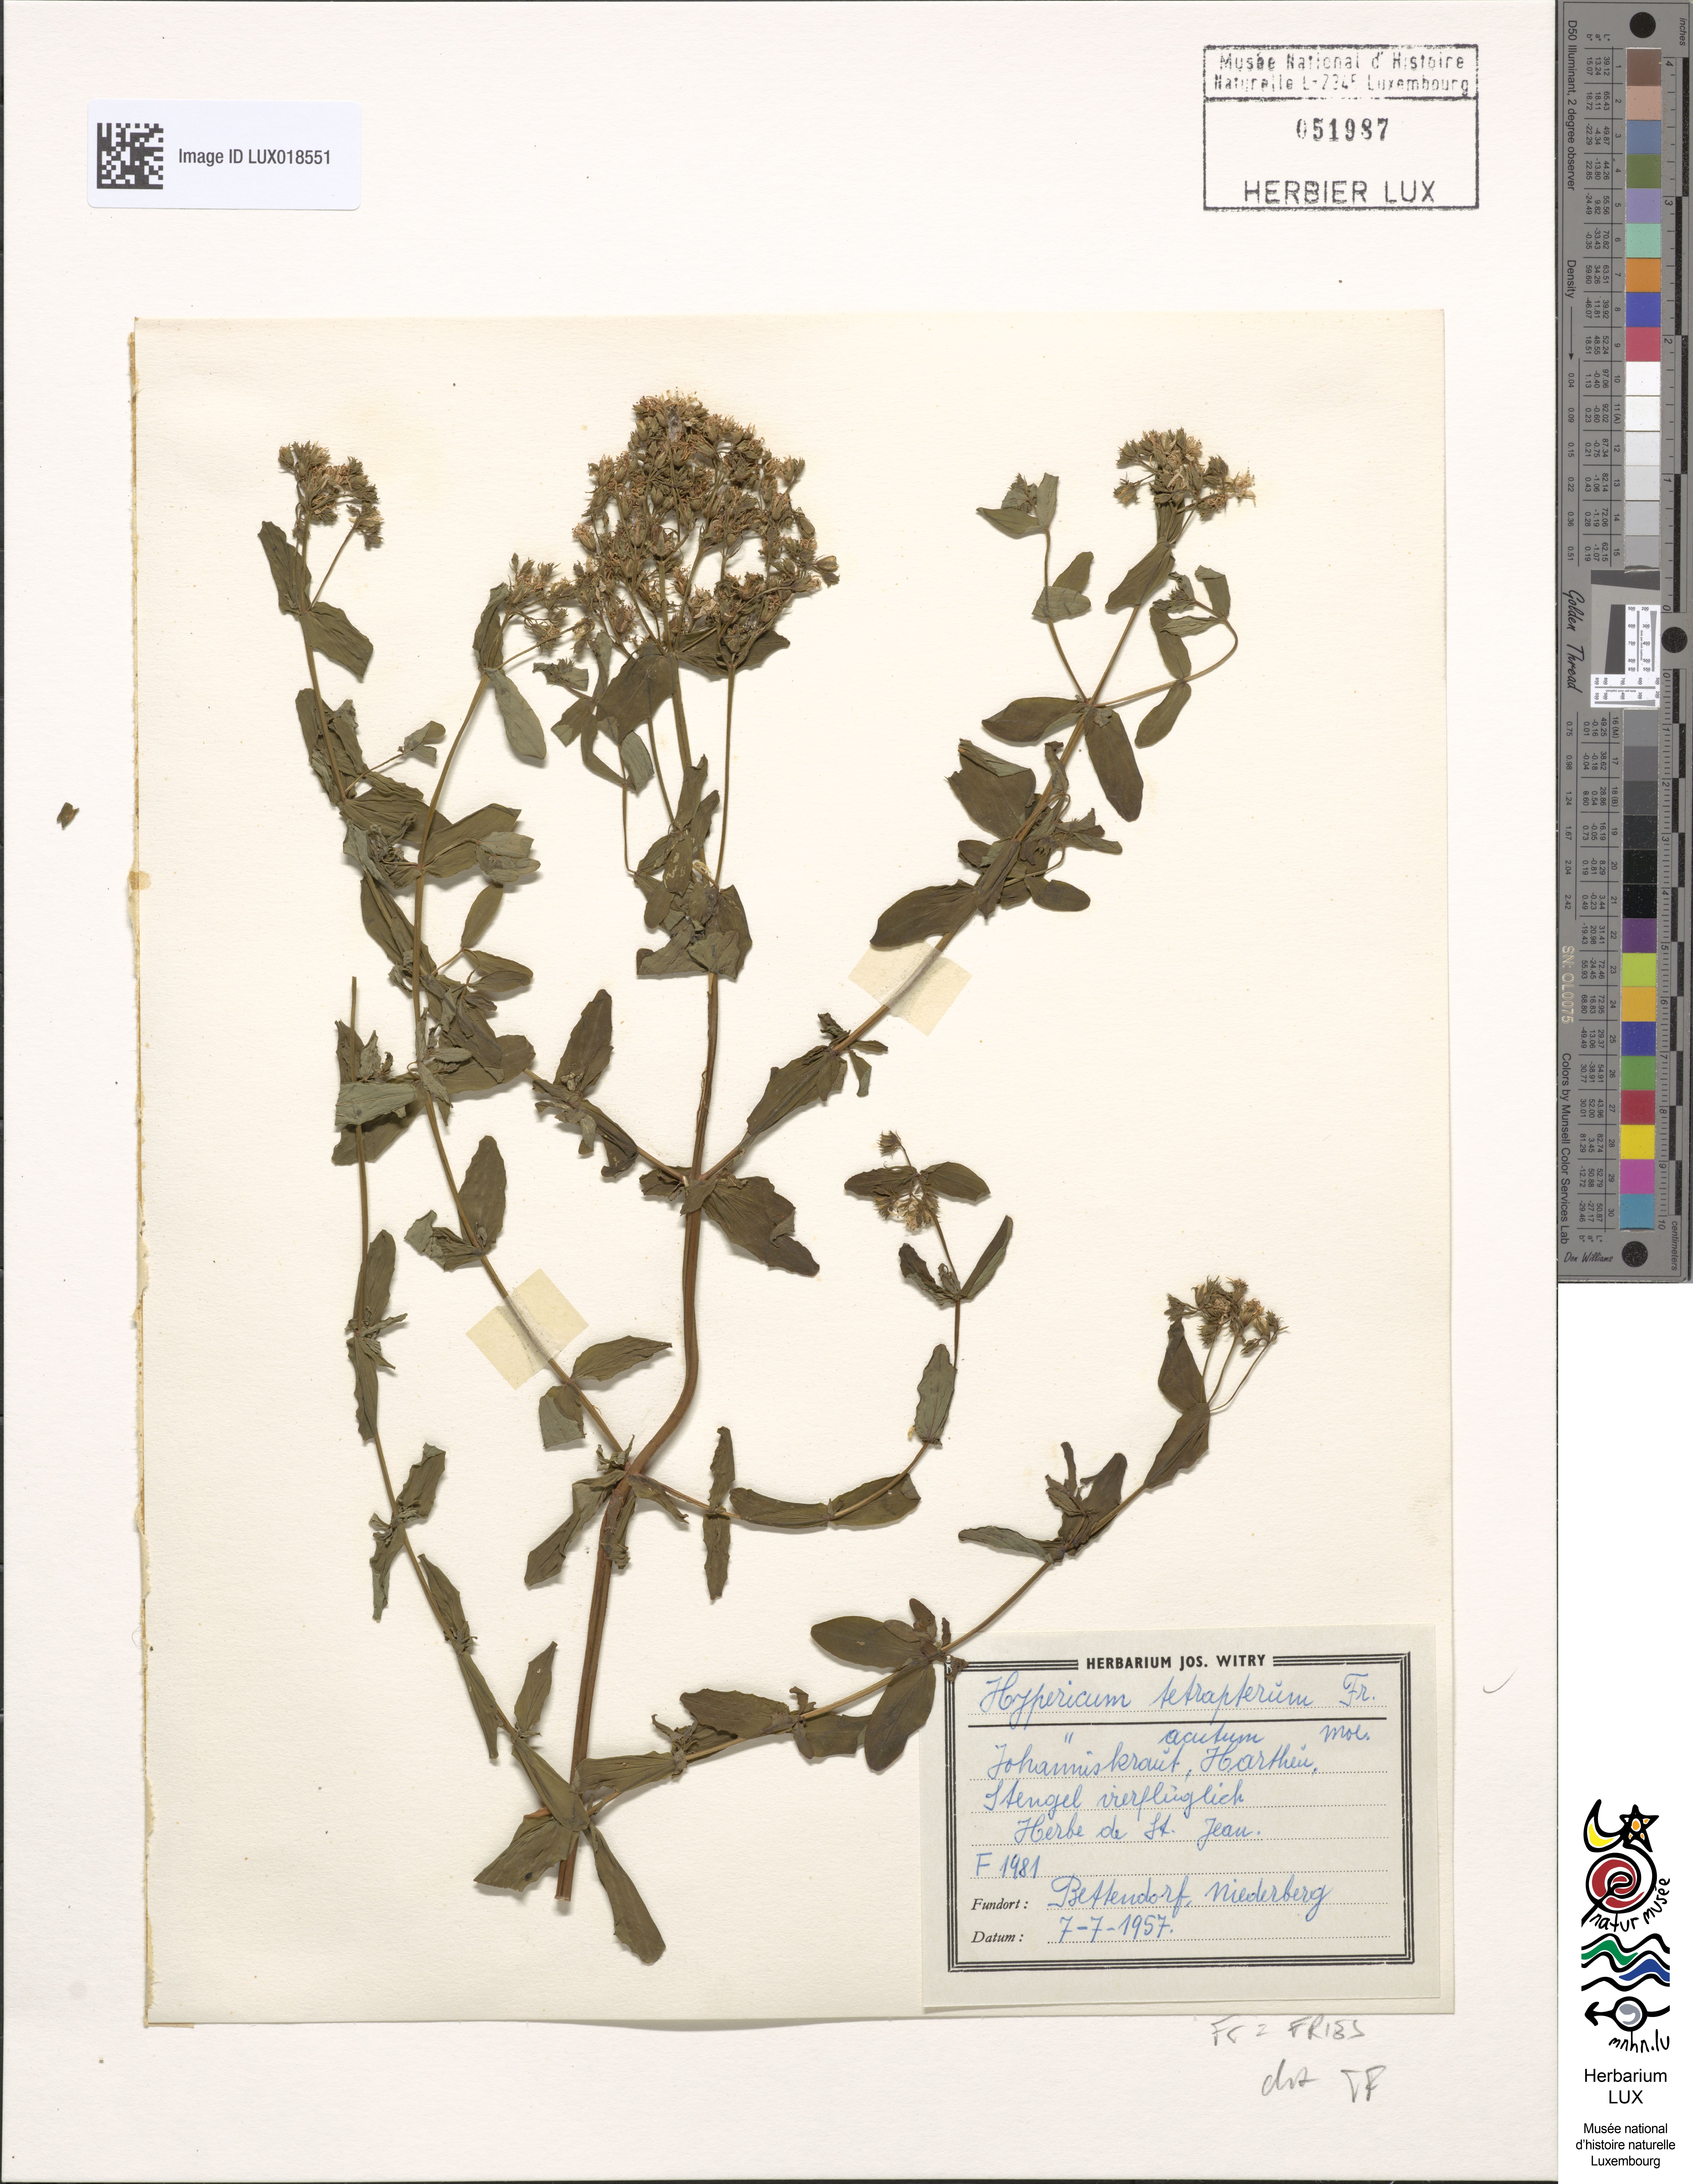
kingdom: Plantae
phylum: Tracheophyta
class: Magnoliopsida
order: Malpighiales
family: Hypericaceae
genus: Hypericum
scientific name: Hypericum tetrapterum
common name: Square-stalked st. john's-wort
